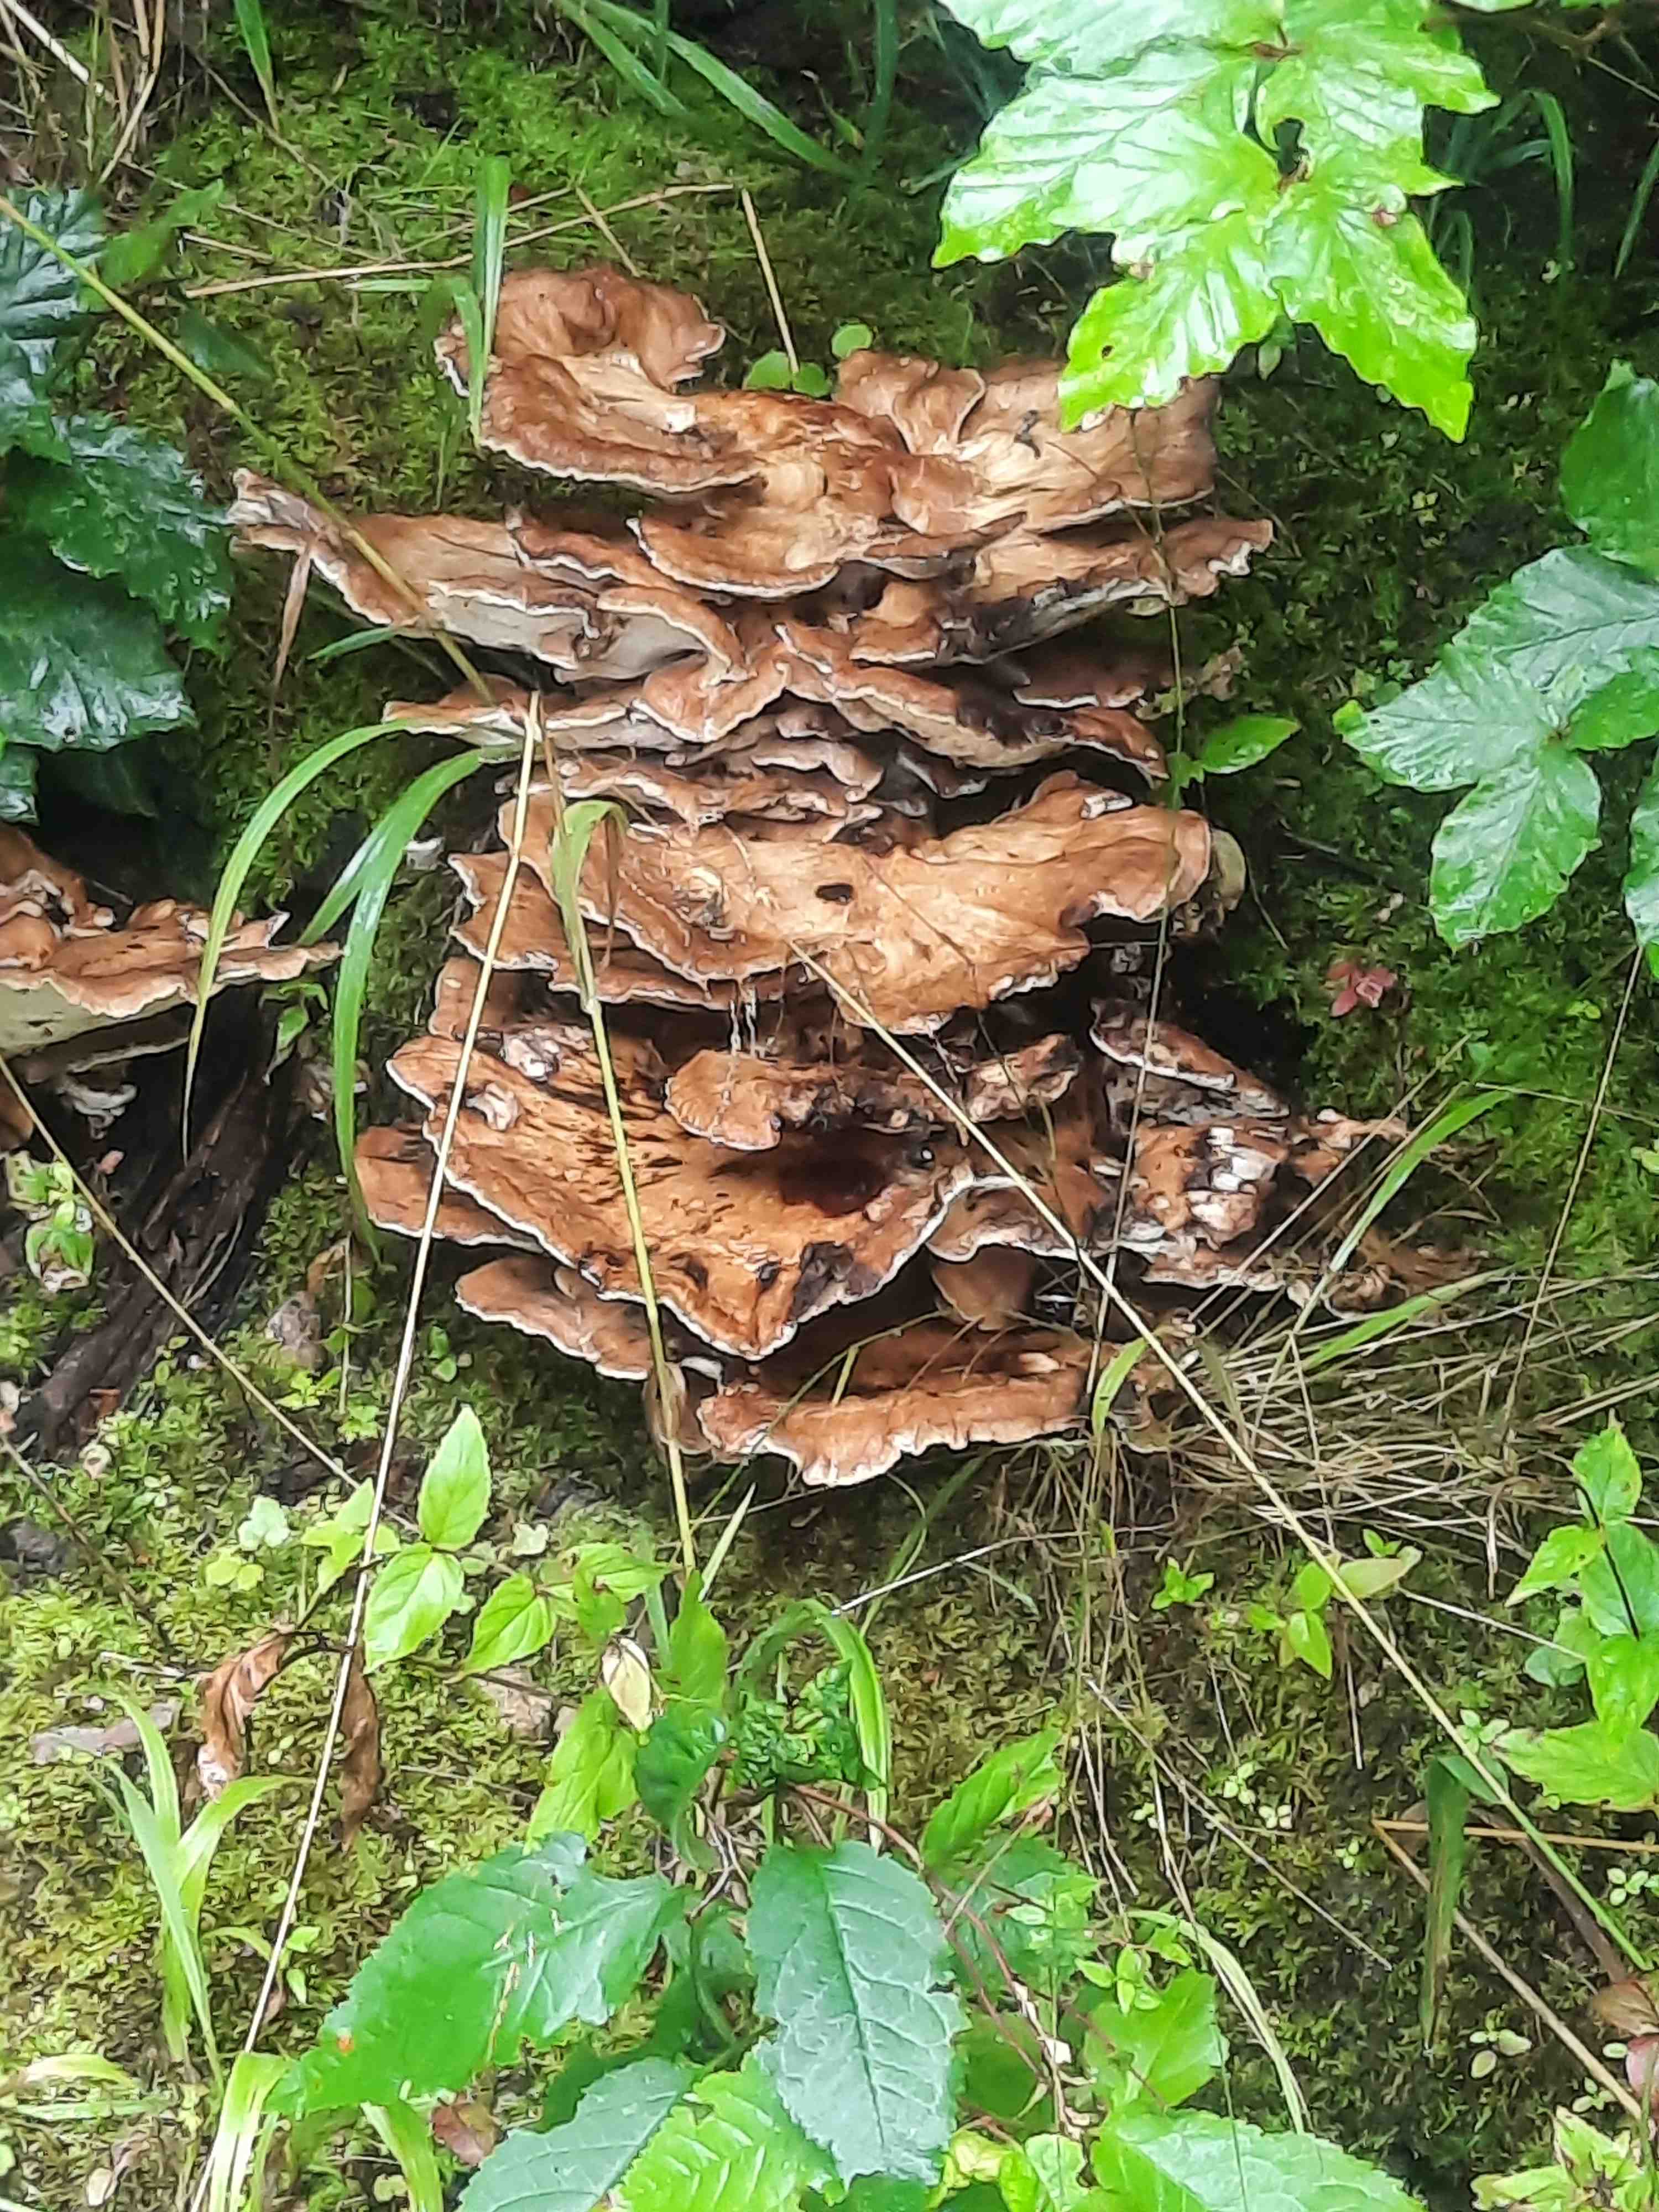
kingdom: Fungi
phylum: Basidiomycota
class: Agaricomycetes
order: Polyporales
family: Meripilaceae
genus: Meripilus
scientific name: Meripilus giganteus
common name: kæmpeporesvamp
